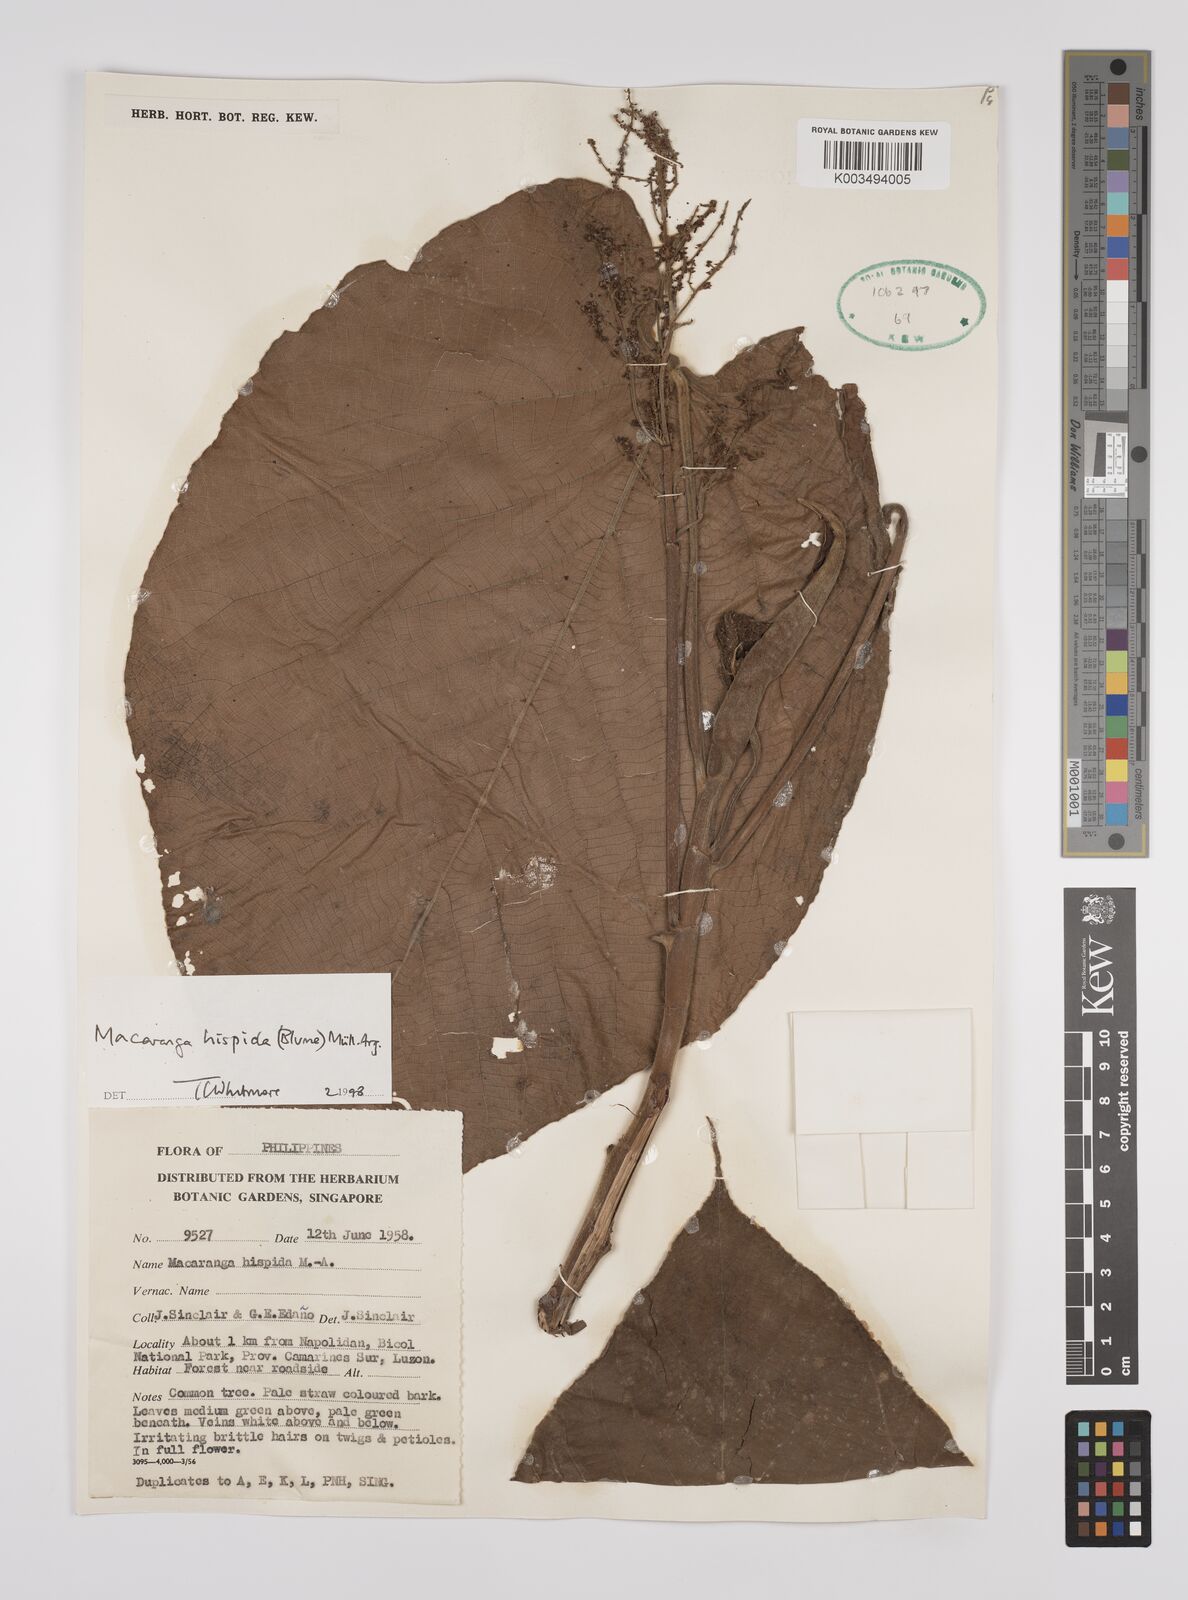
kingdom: Plantae
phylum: Tracheophyta
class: Magnoliopsida
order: Malpighiales
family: Euphorbiaceae
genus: Macaranga
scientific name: Macaranga hispida
